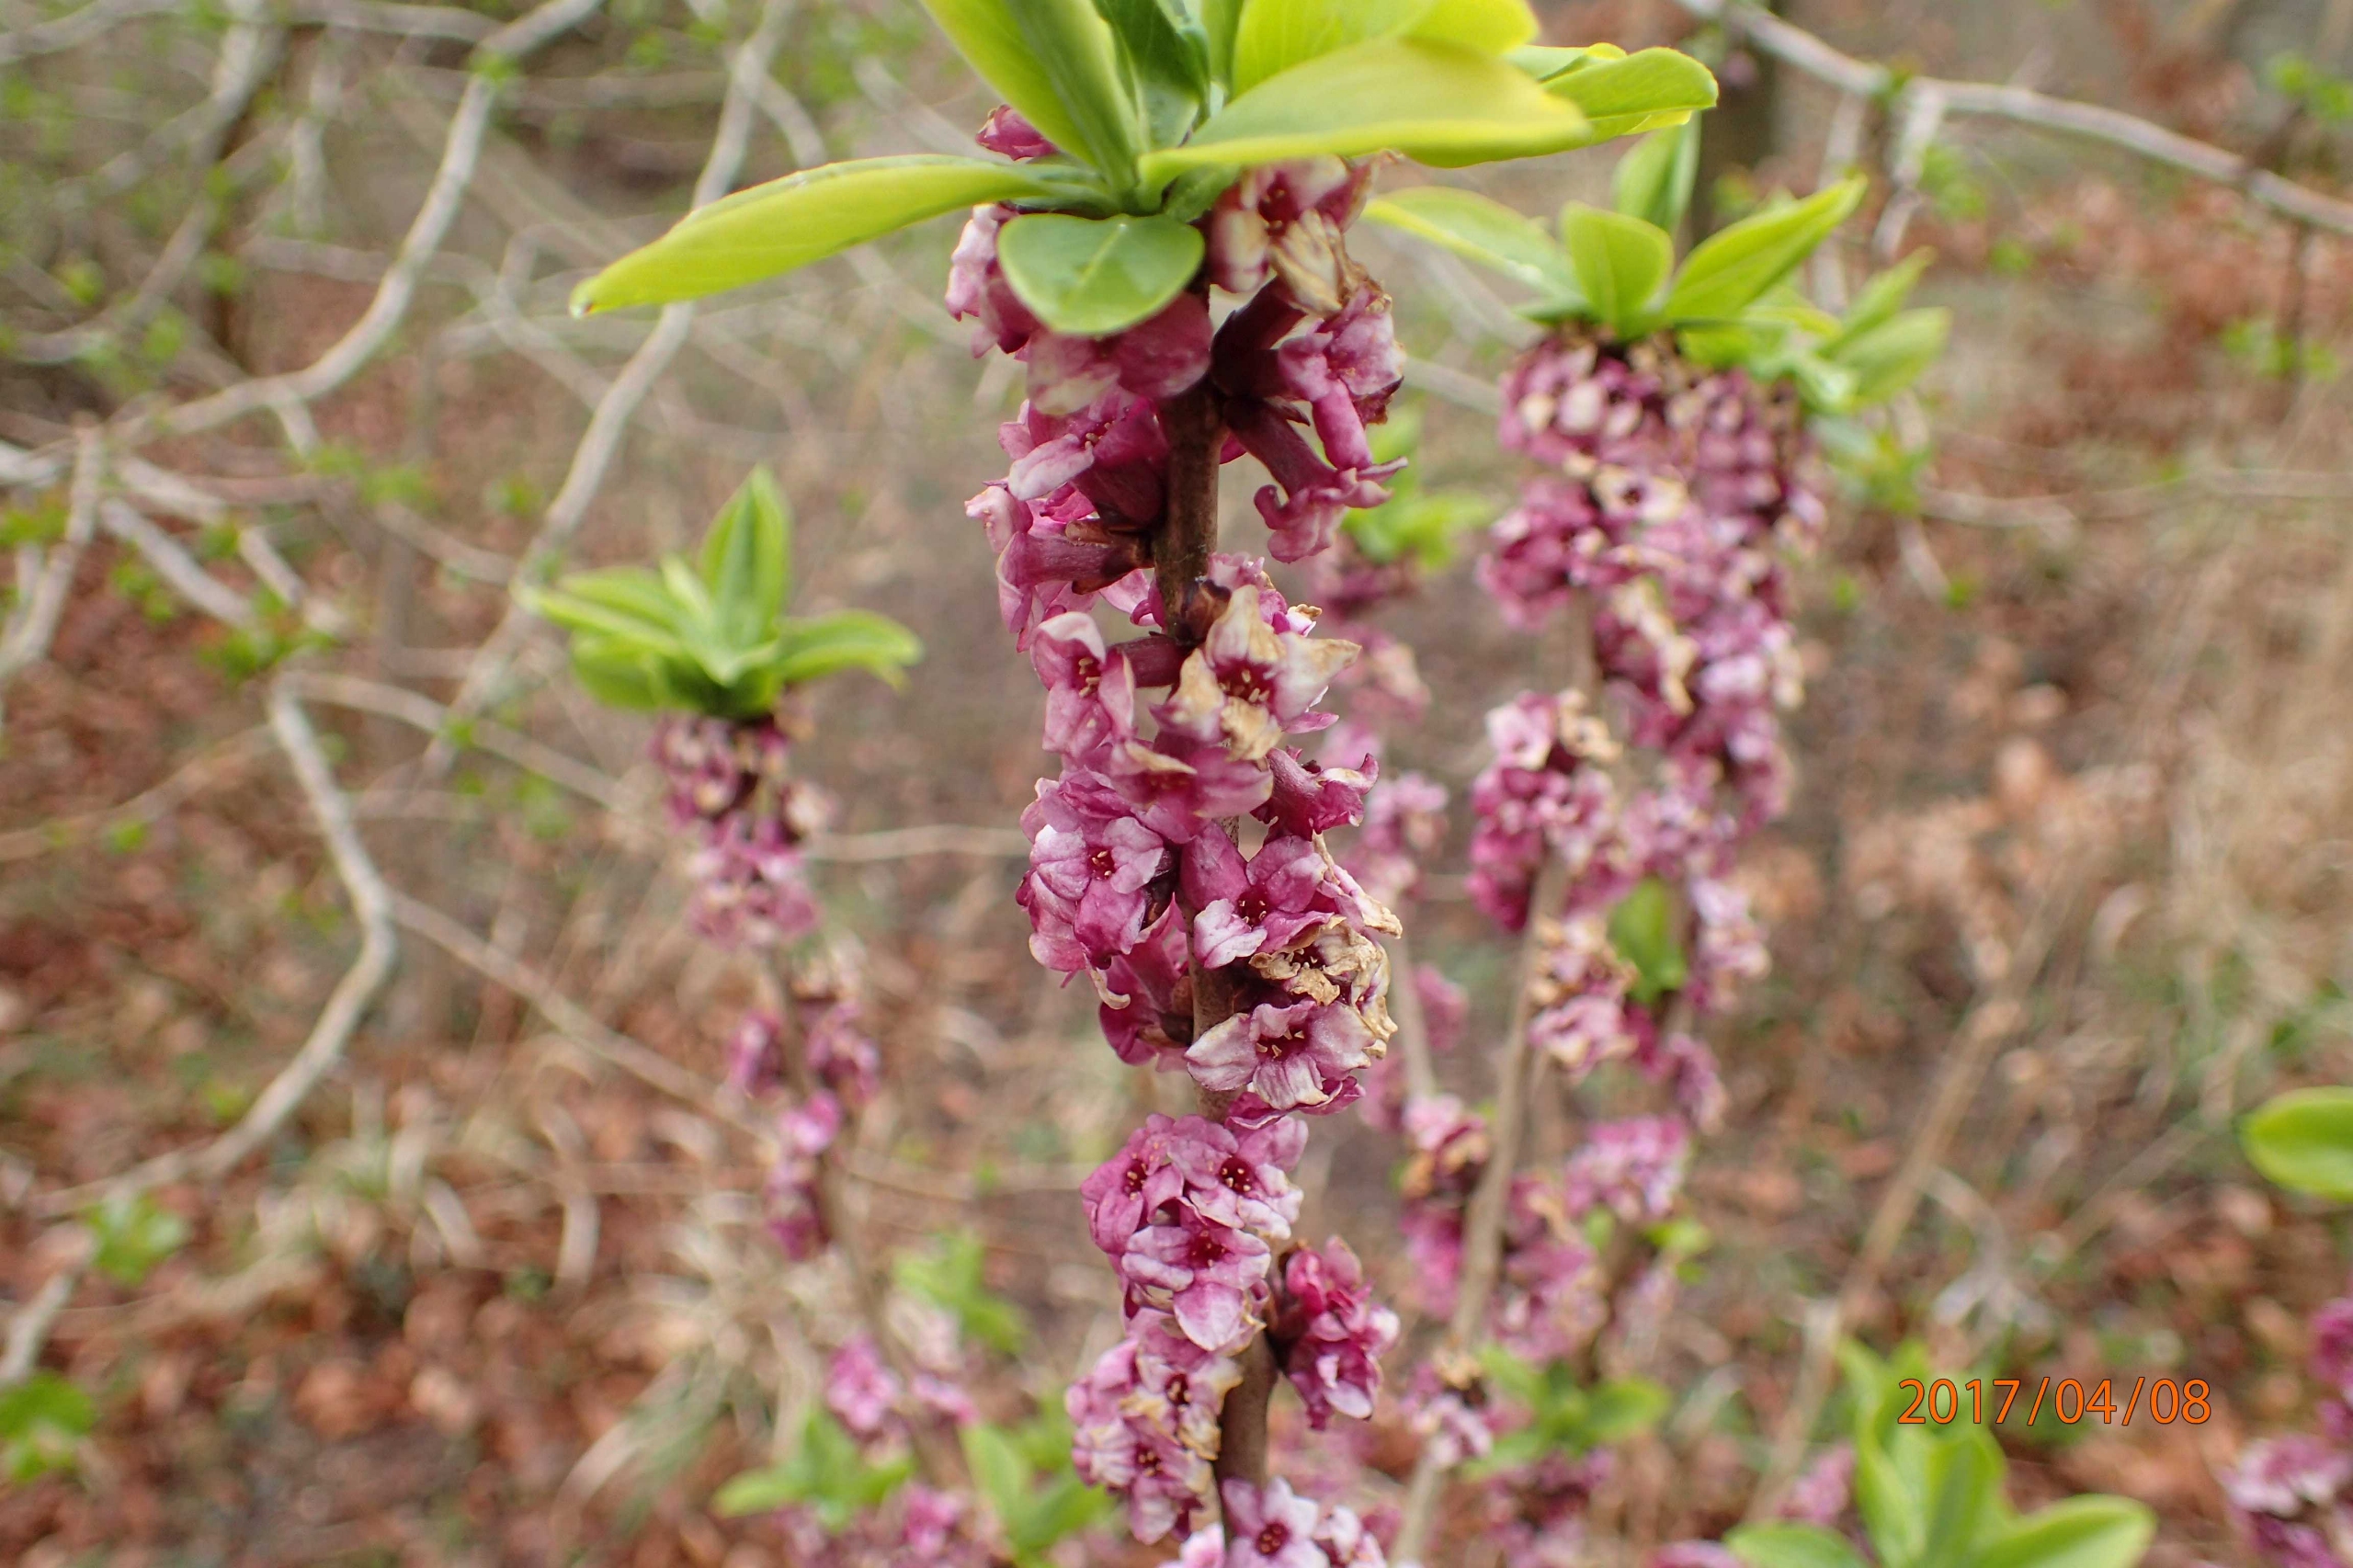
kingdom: Plantae
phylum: Tracheophyta
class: Magnoliopsida
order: Malvales
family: Thymelaeaceae
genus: Daphne
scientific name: Daphne mezereum
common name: Pebertræ
